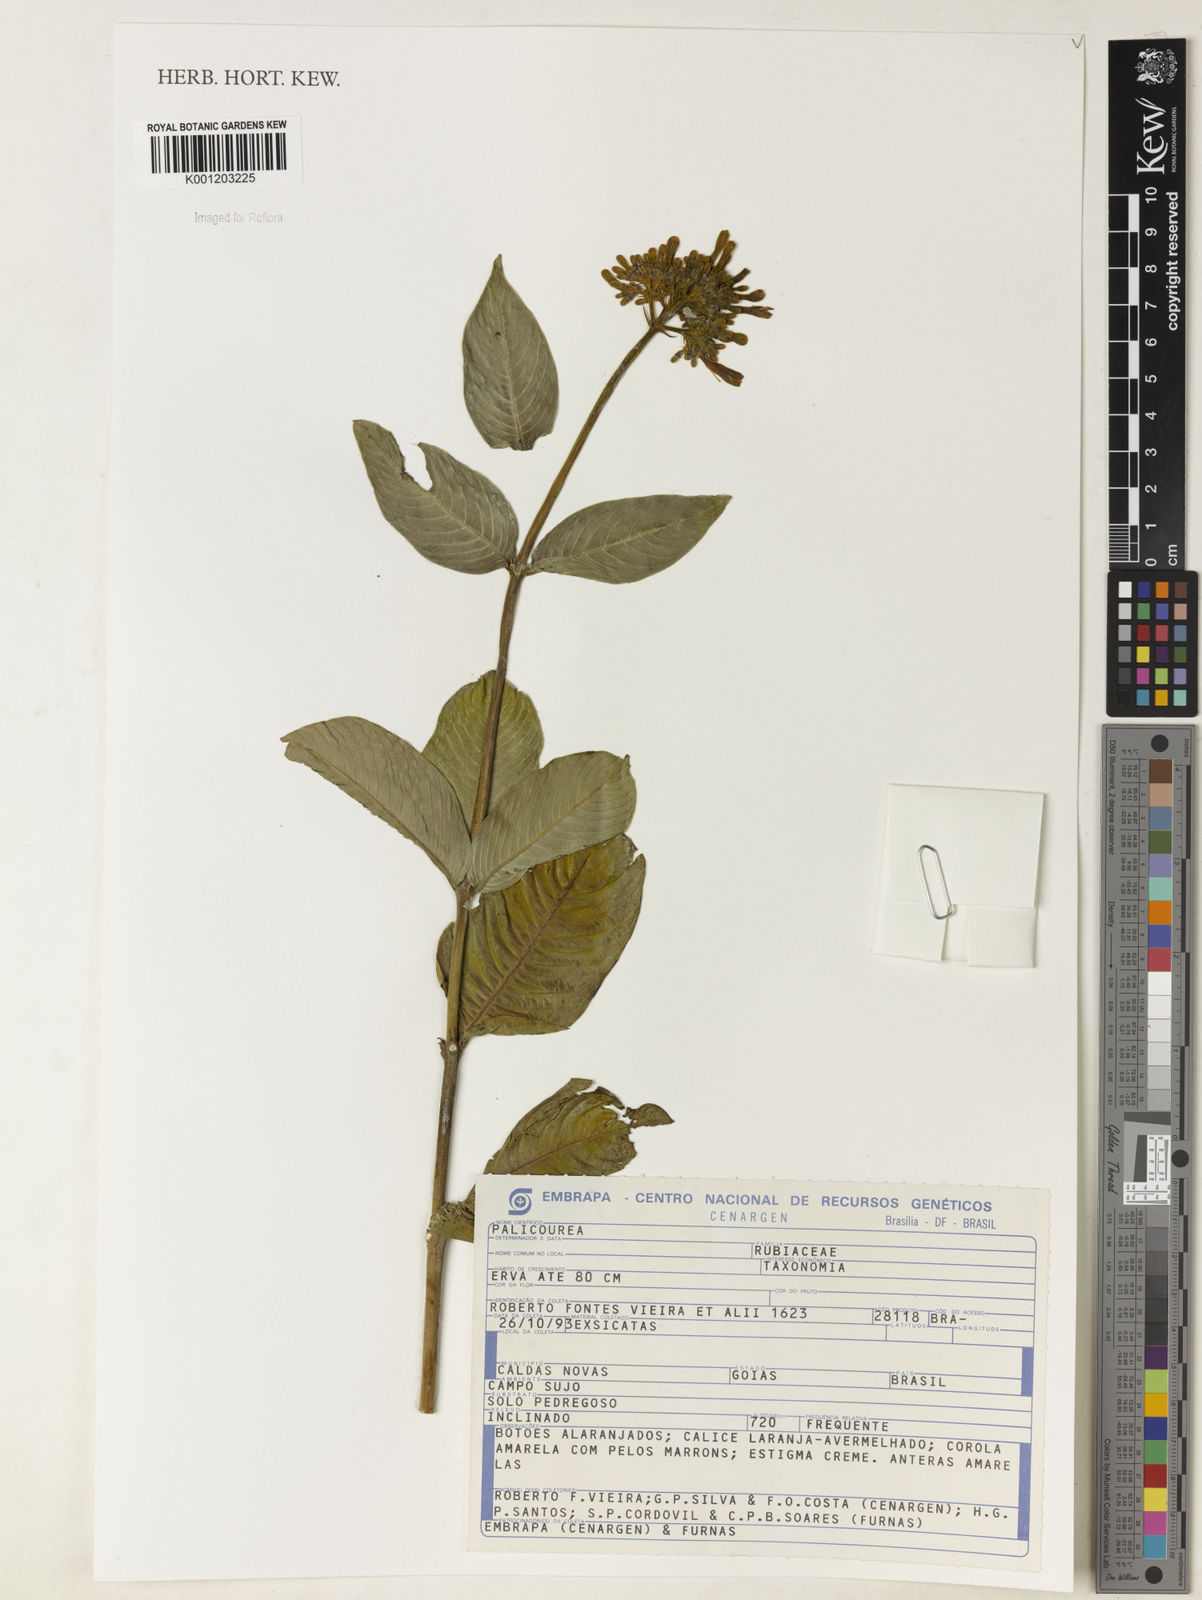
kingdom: Plantae
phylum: Tracheophyta
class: Magnoliopsida
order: Gentianales
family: Rubiaceae
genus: Palicourea
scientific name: Palicourea
